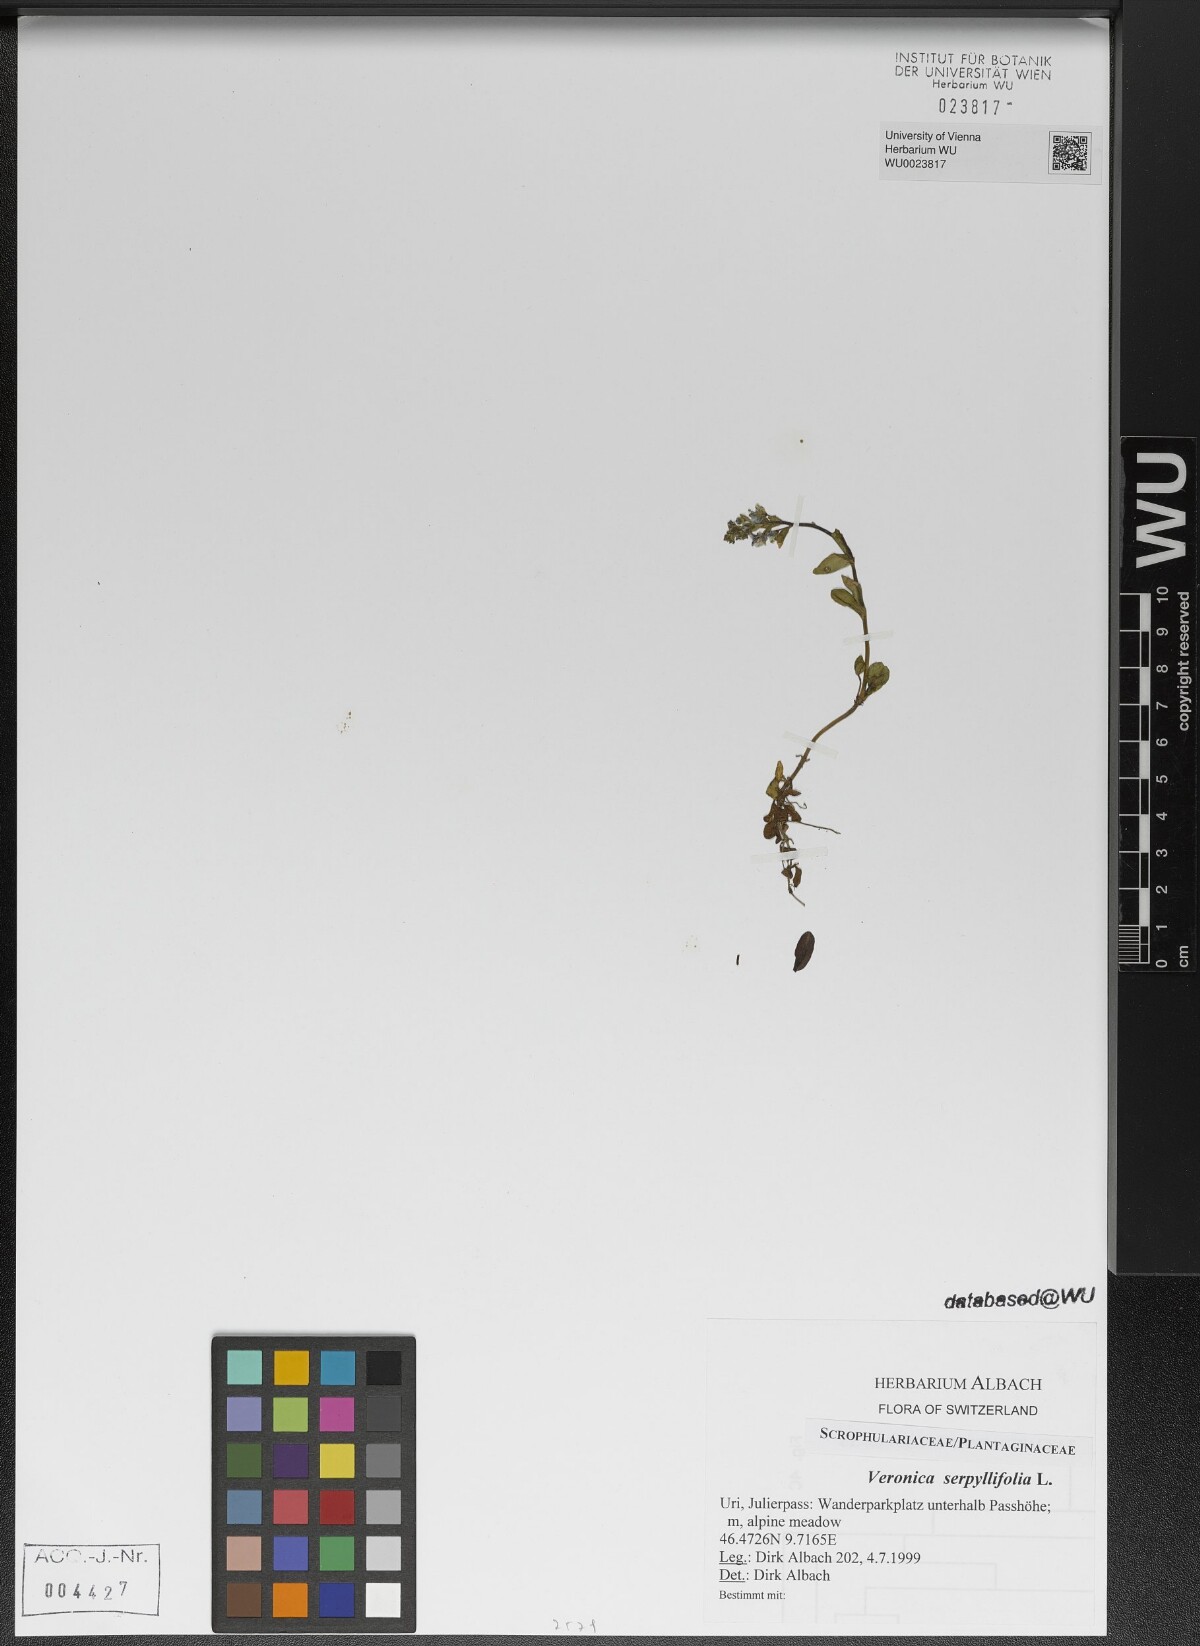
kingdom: Plantae
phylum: Tracheophyta
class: Magnoliopsida
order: Lamiales
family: Plantaginaceae
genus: Veronica
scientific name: Veronica serpyllifolia
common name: Thyme-leaved speedwell
